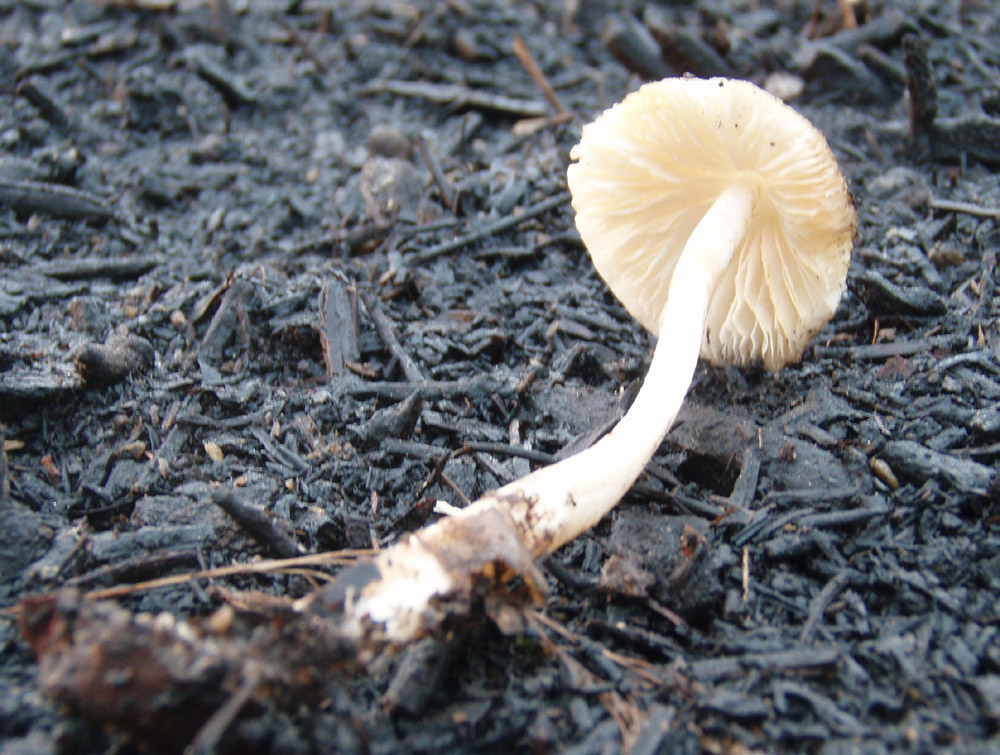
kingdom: Fungi
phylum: Basidiomycota
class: Agaricomycetes
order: Agaricales
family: Porotheleaceae
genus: Hydropodia
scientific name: Hydropodia subalpina
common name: vår-fnugfod
